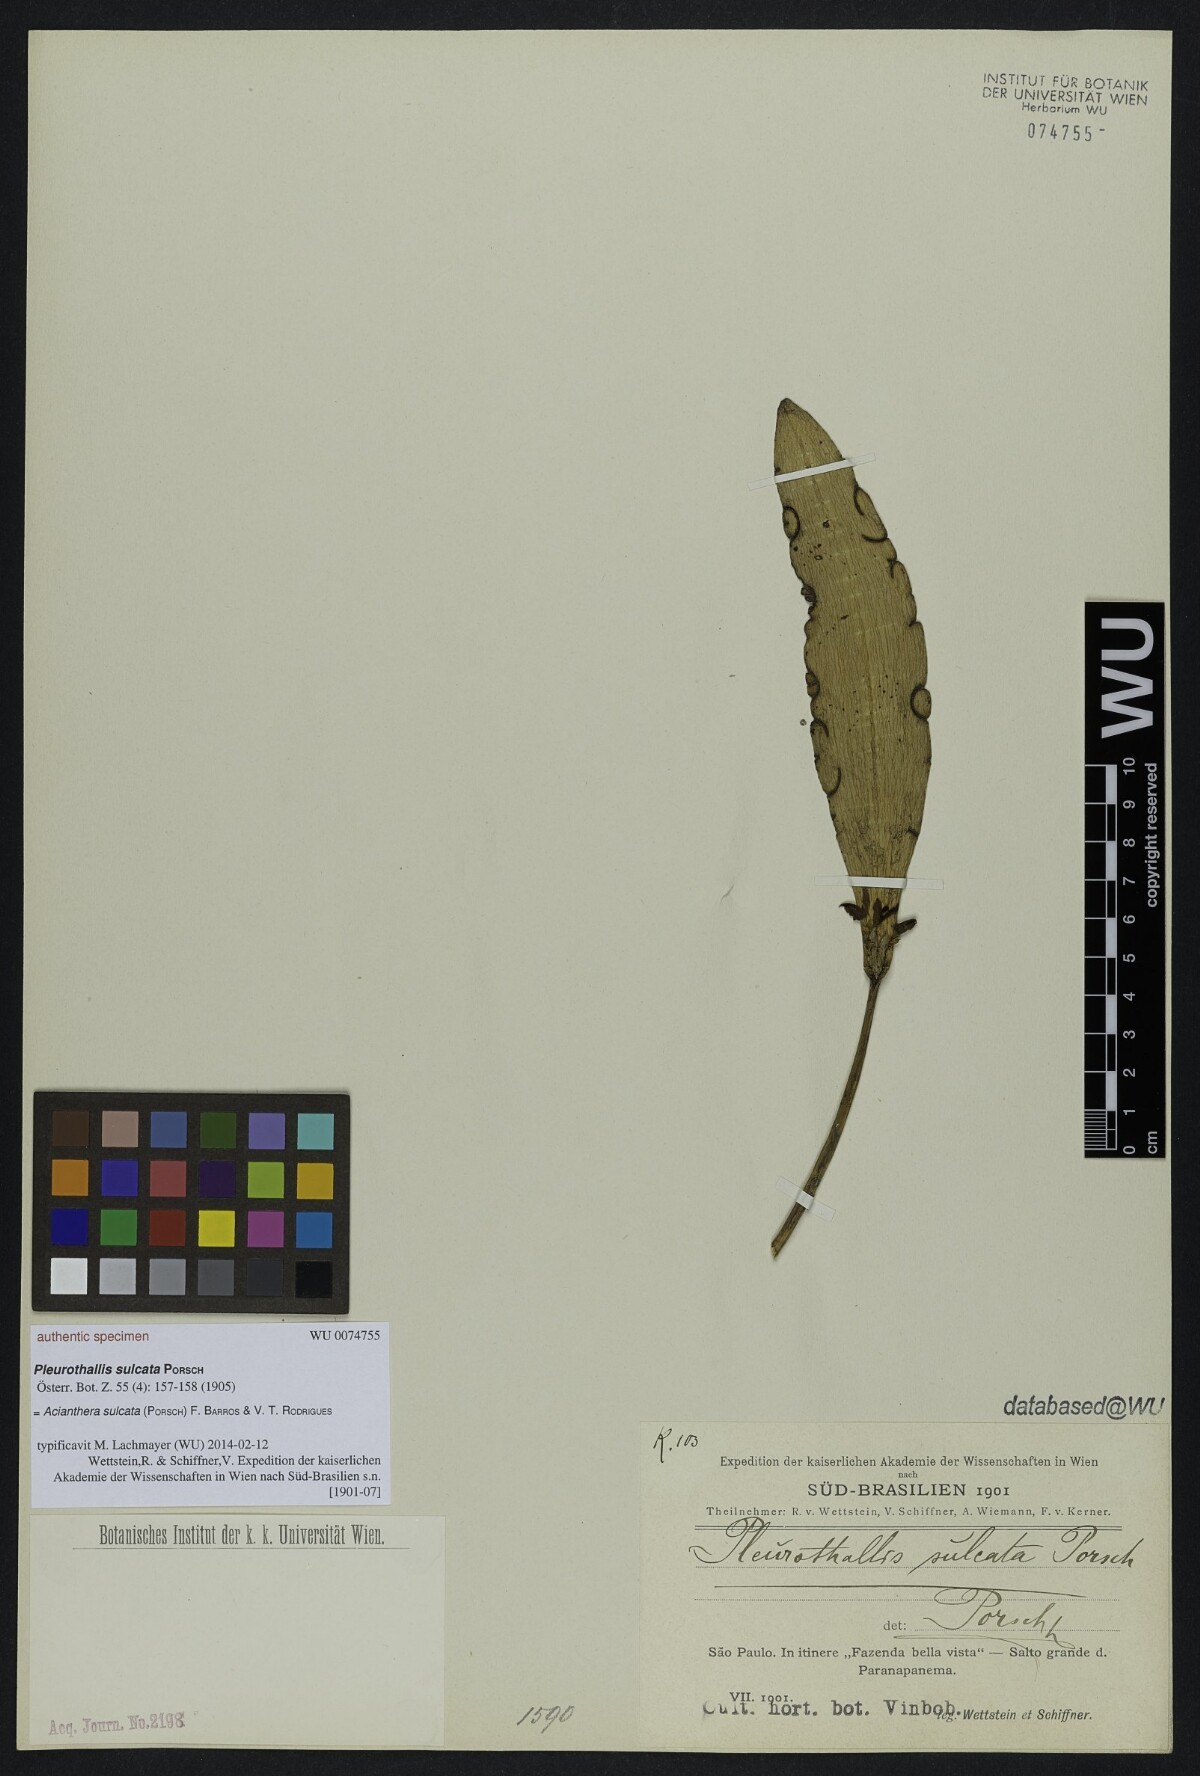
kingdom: Plantae
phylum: Tracheophyta
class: Liliopsida
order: Asparagales
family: Orchidaceae
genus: Acianthera
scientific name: Acianthera sulcata
